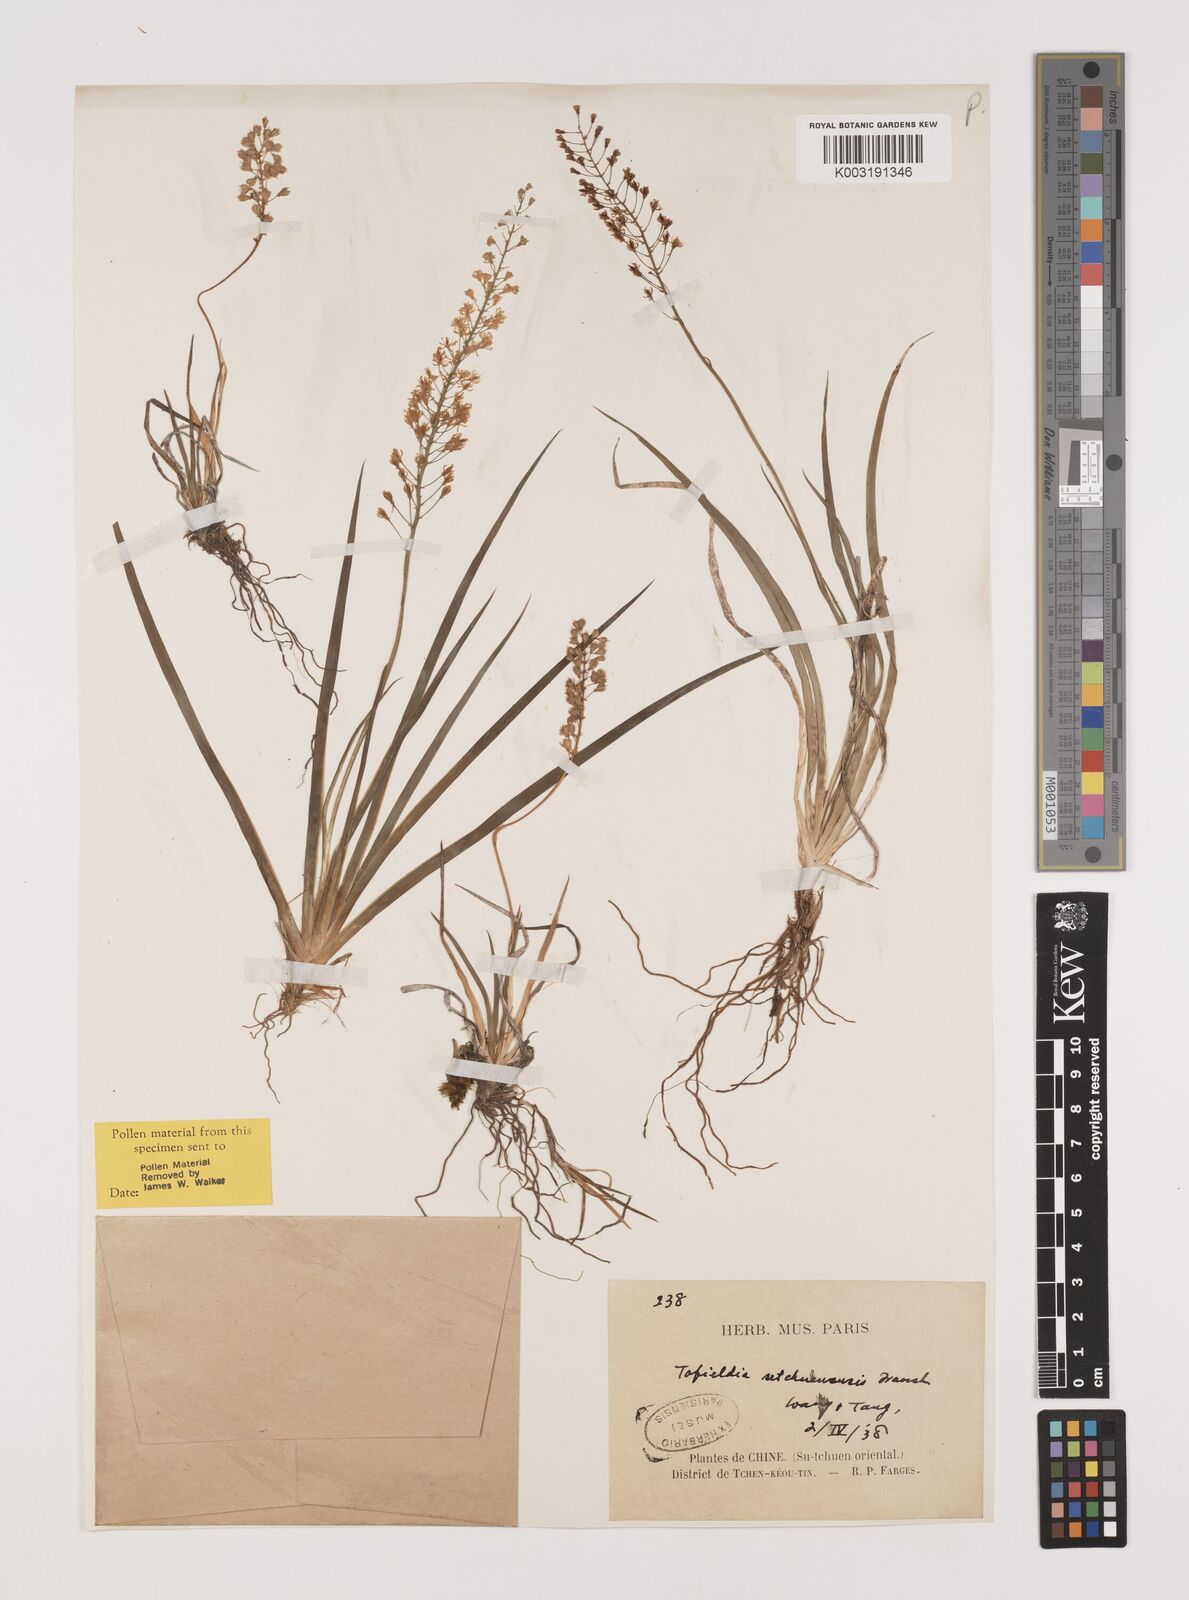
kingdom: Plantae
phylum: Tracheophyta
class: Liliopsida
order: Alismatales
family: Tofieldiaceae
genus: Tofieldia
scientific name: Tofieldia thibetica
